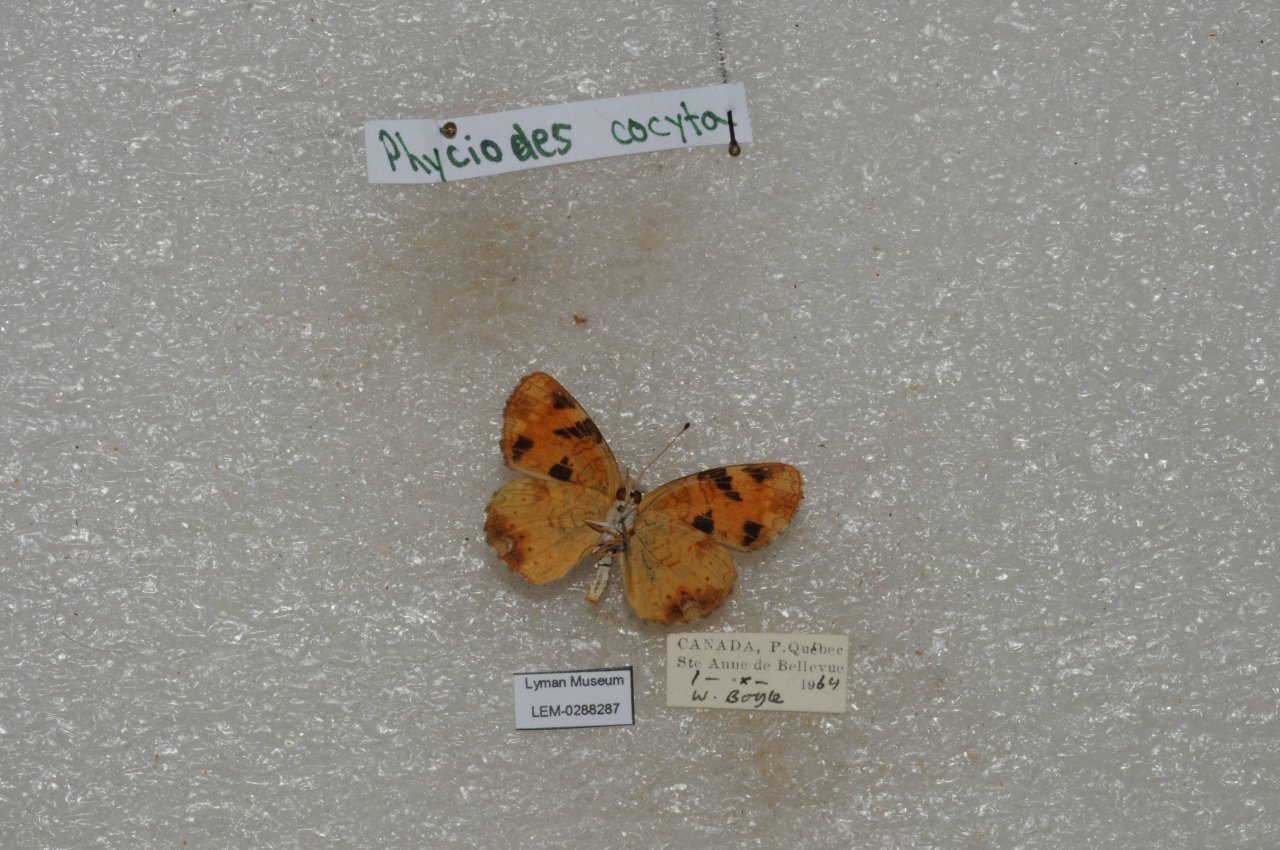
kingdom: Animalia
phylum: Arthropoda
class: Insecta
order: Lepidoptera
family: Nymphalidae
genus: Phyciodes
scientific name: Phyciodes tharos
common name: Northern Crescent
